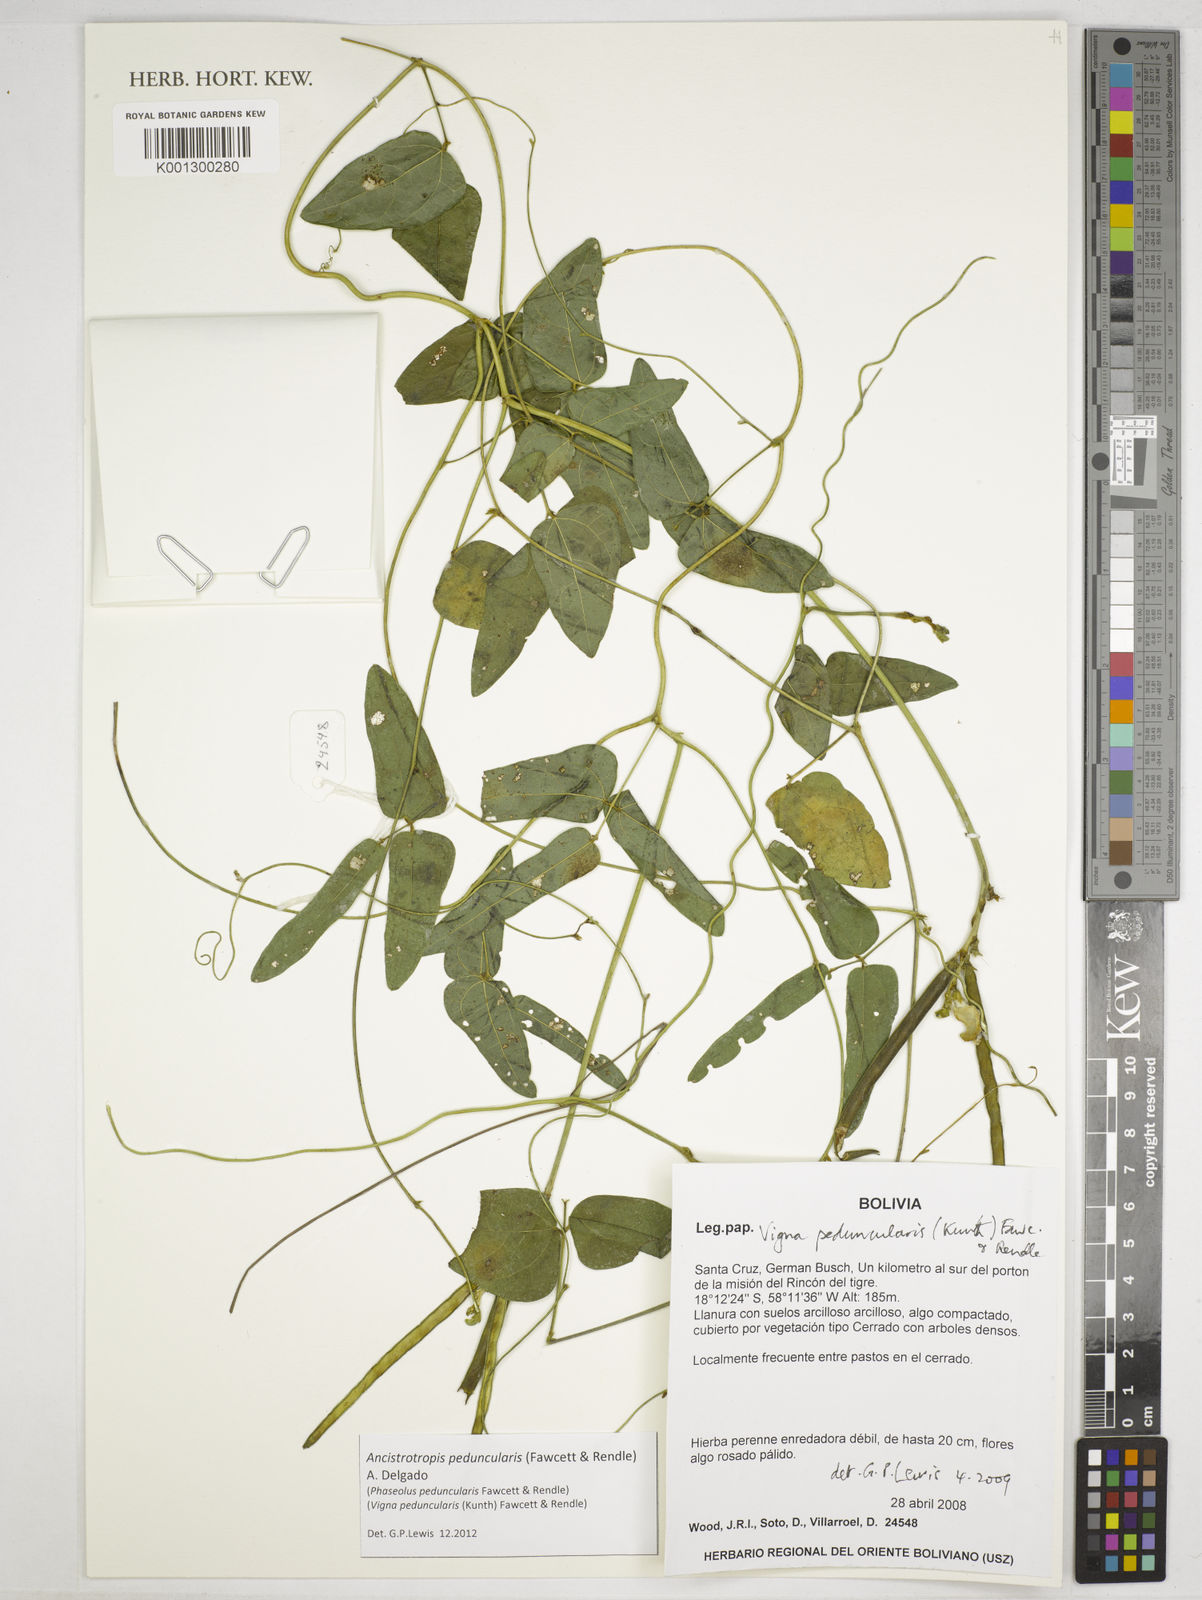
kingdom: Plantae
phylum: Tracheophyta
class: Magnoliopsida
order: Fabales
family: Fabaceae
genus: Ancistrotropis
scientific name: Ancistrotropis peduncularis
